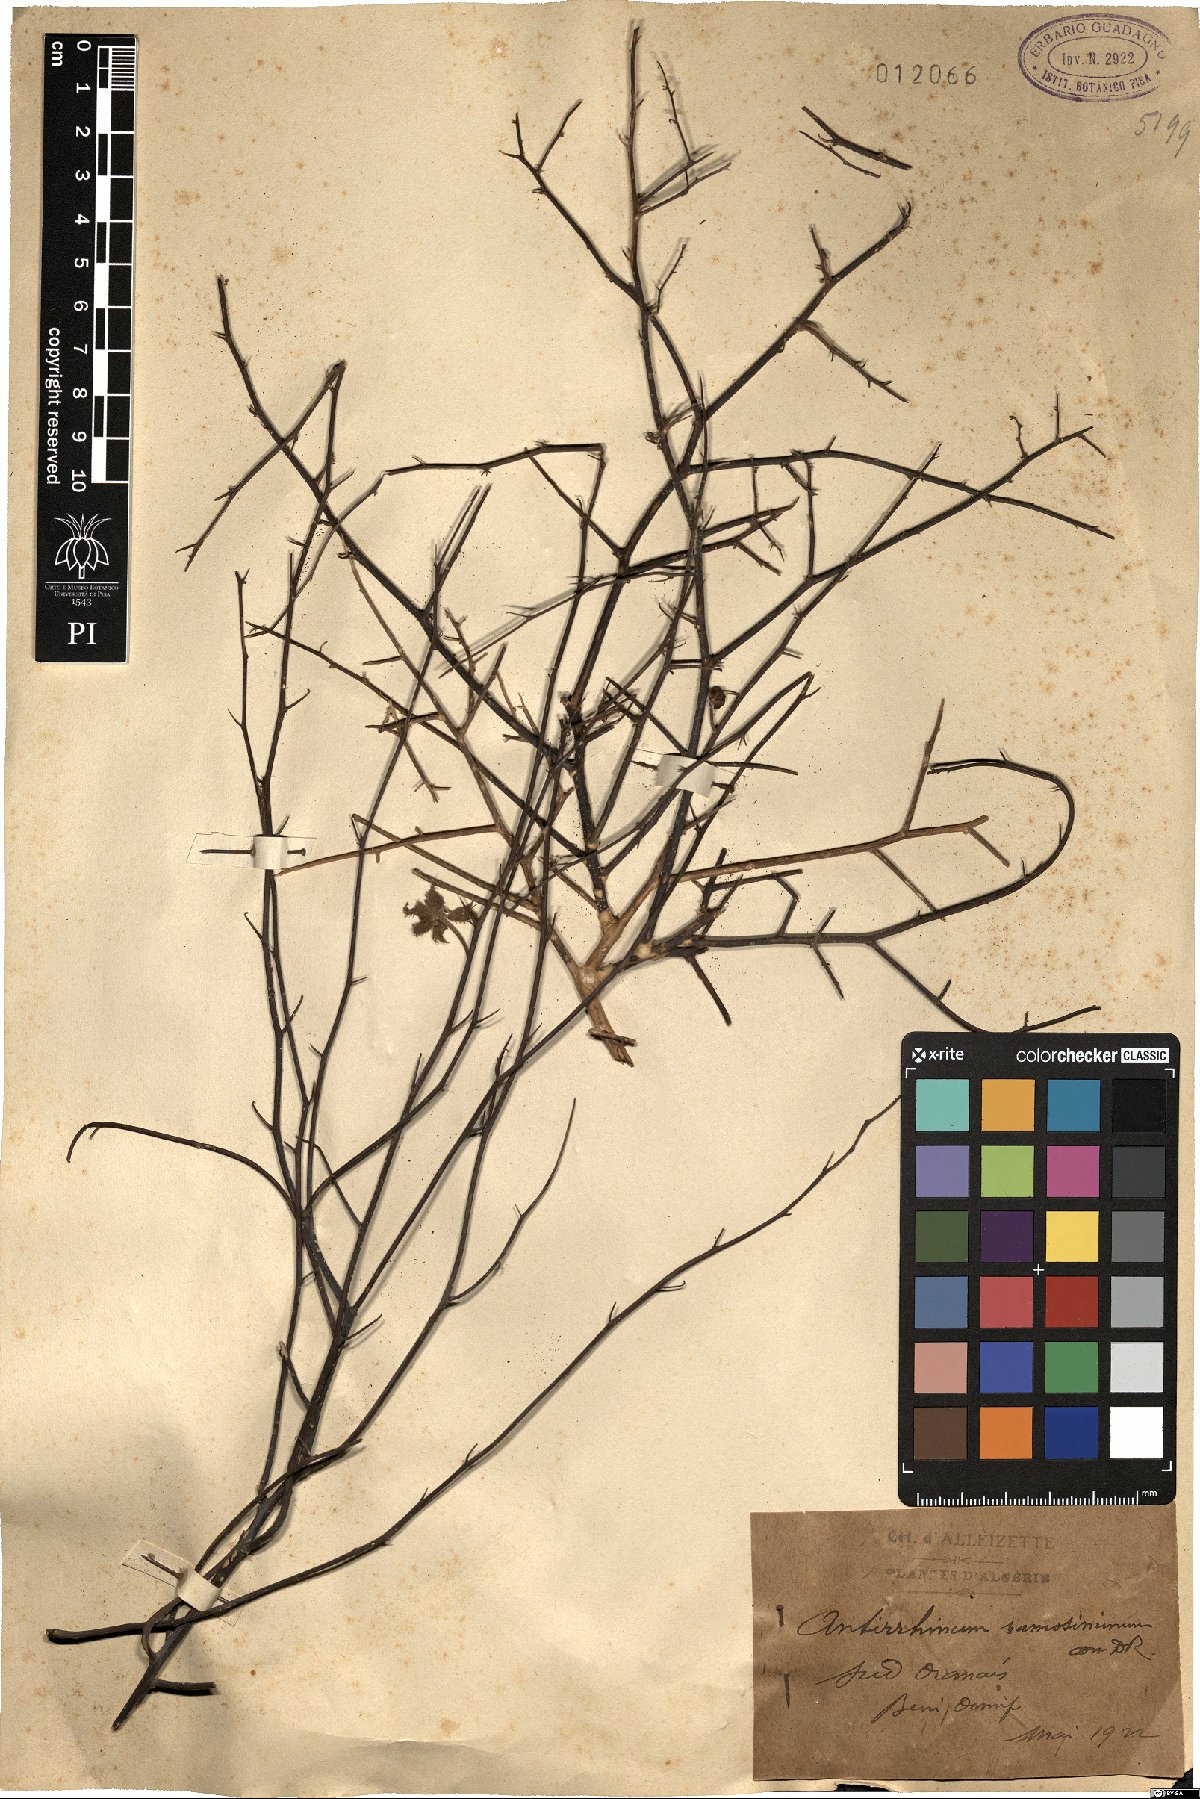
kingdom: Plantae
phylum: Tracheophyta
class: Magnoliopsida
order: Lamiales
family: Plantaginaceae
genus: Acanthorrhinum
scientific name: Acanthorrhinum ramosissimum
